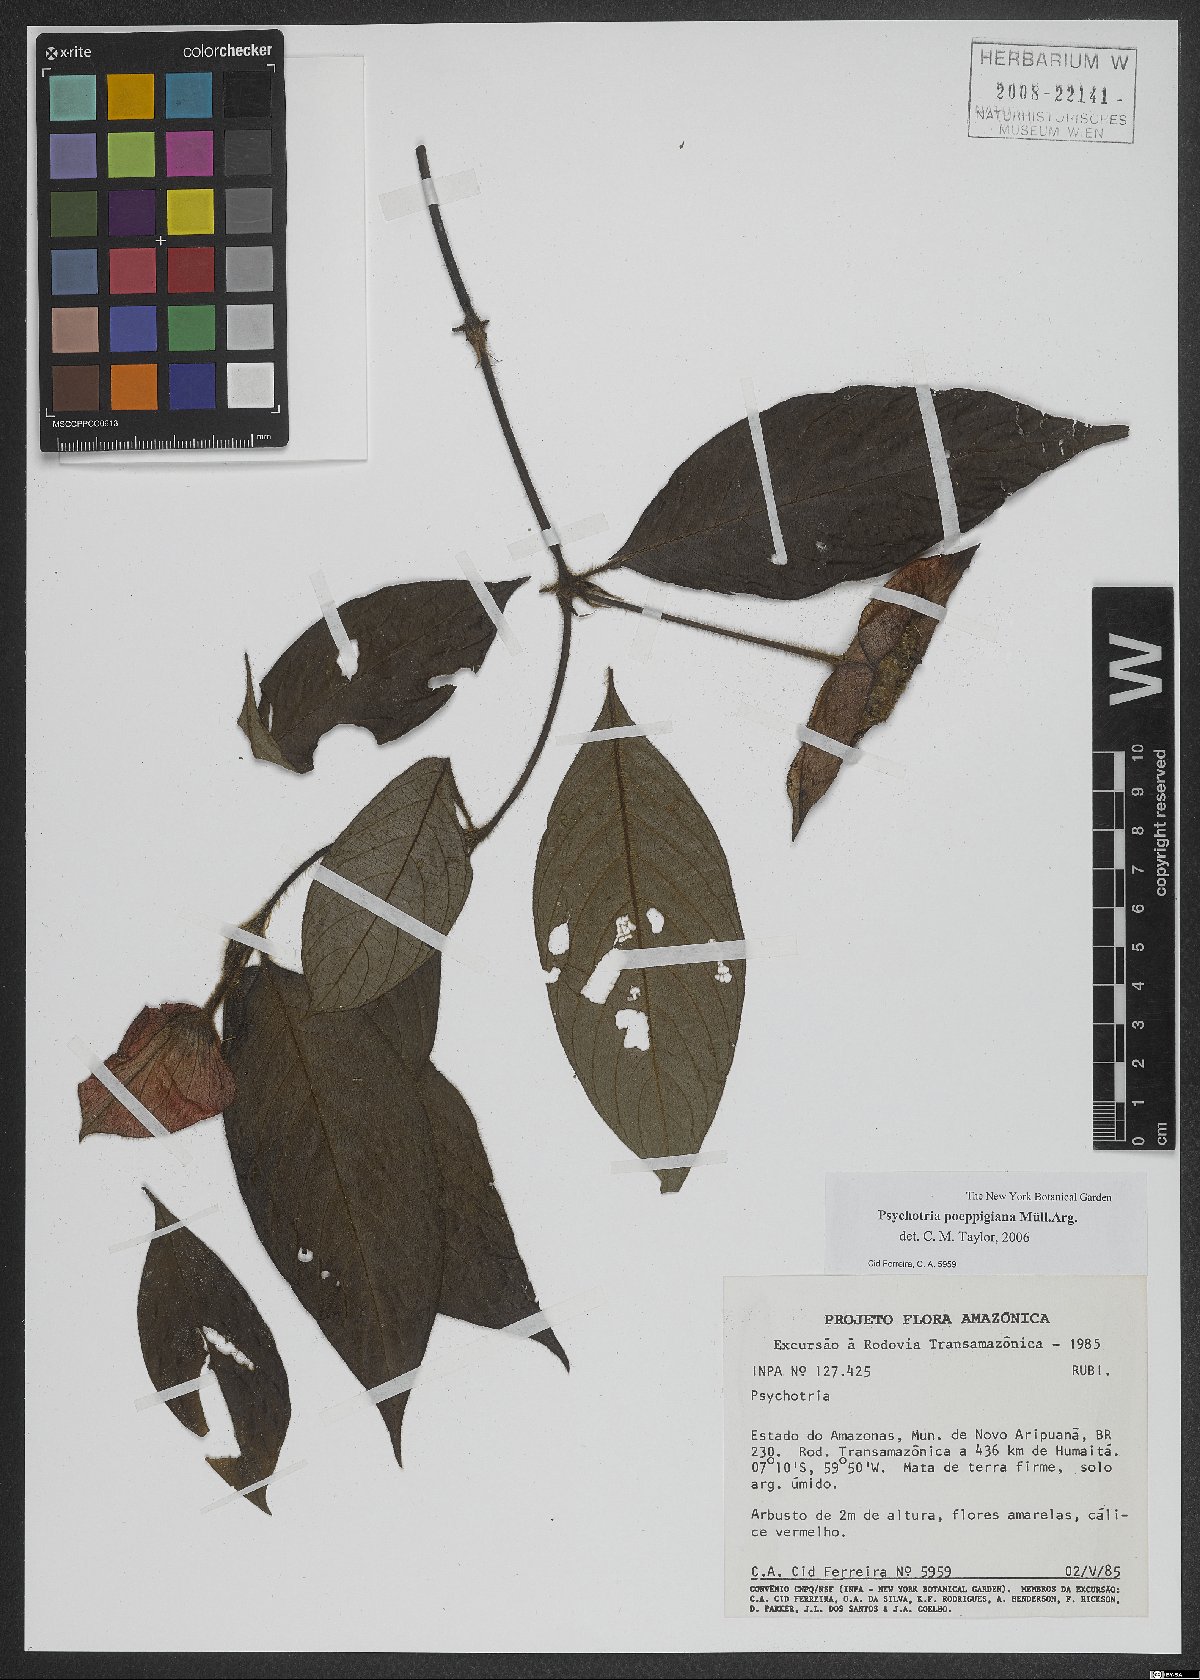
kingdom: Plantae
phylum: Tracheophyta
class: Magnoliopsida
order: Gentianales
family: Rubiaceae
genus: Palicourea
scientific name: Palicourea tomentosa
